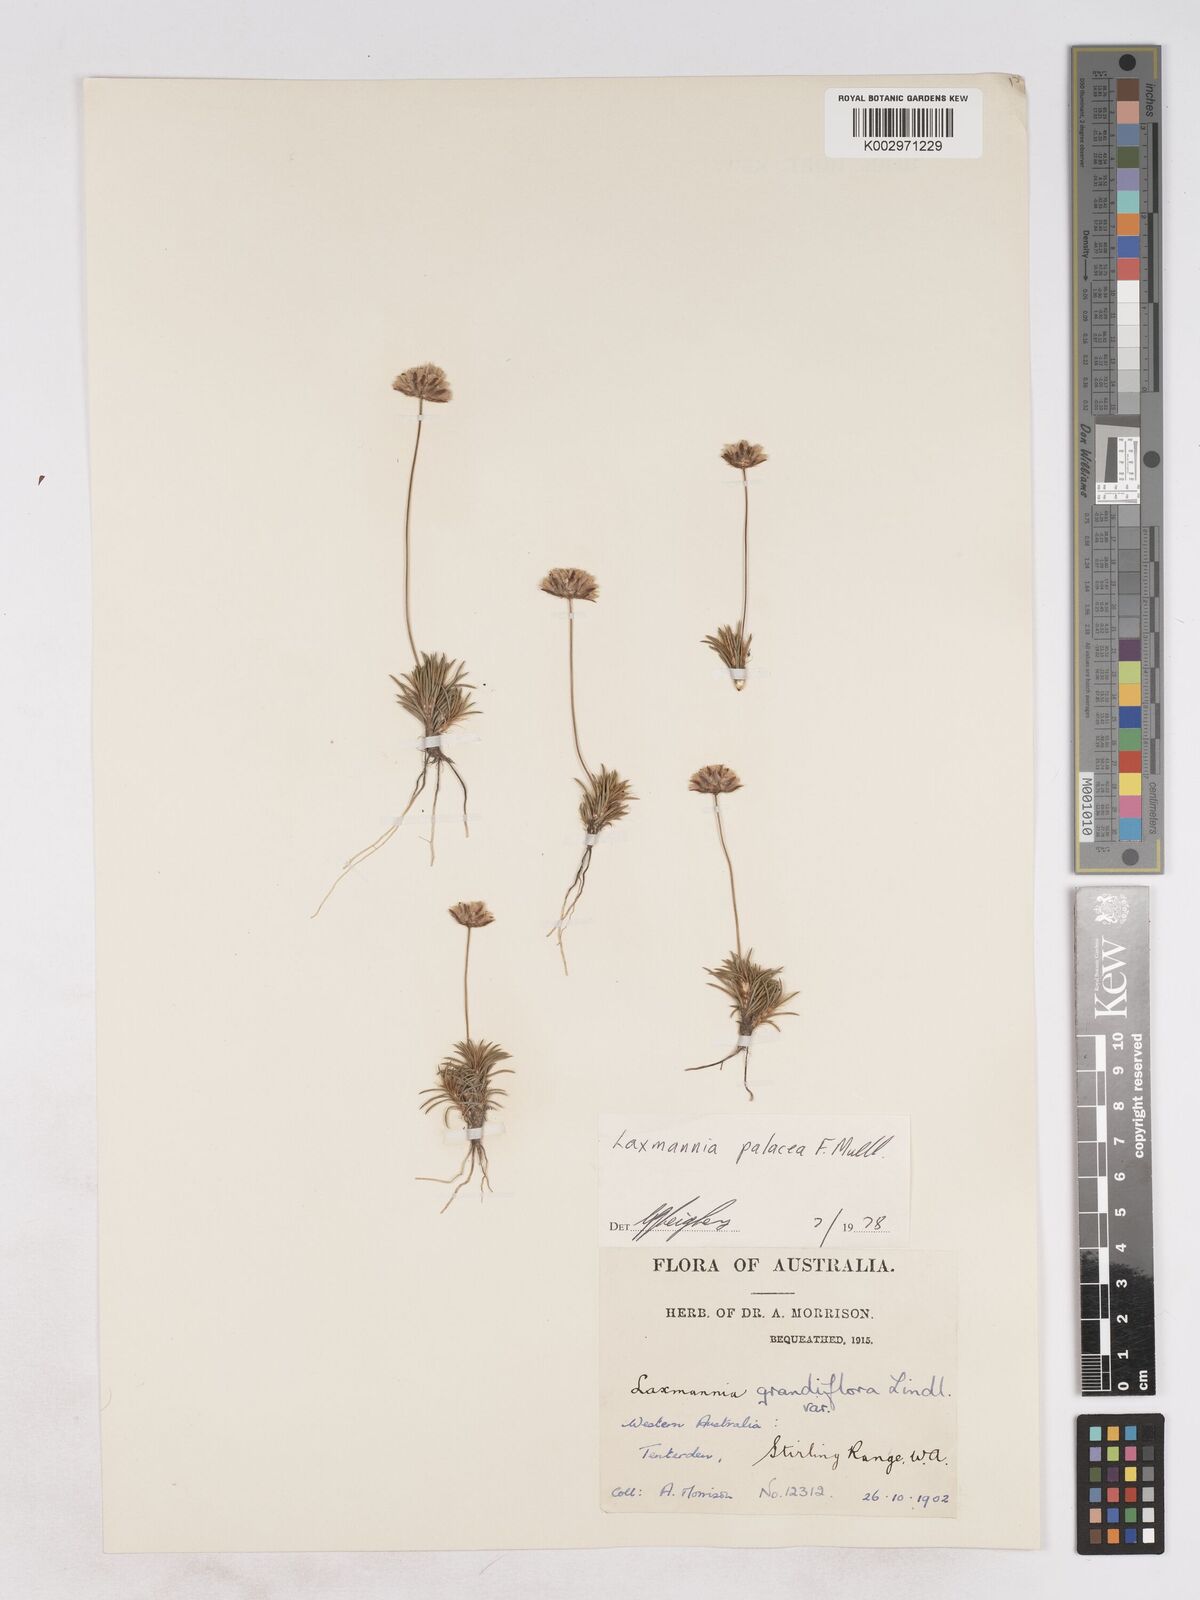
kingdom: Plantae
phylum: Tracheophyta
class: Liliopsida
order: Asparagales
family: Asparagaceae
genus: Laxmannia
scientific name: Laxmannia paleacea
